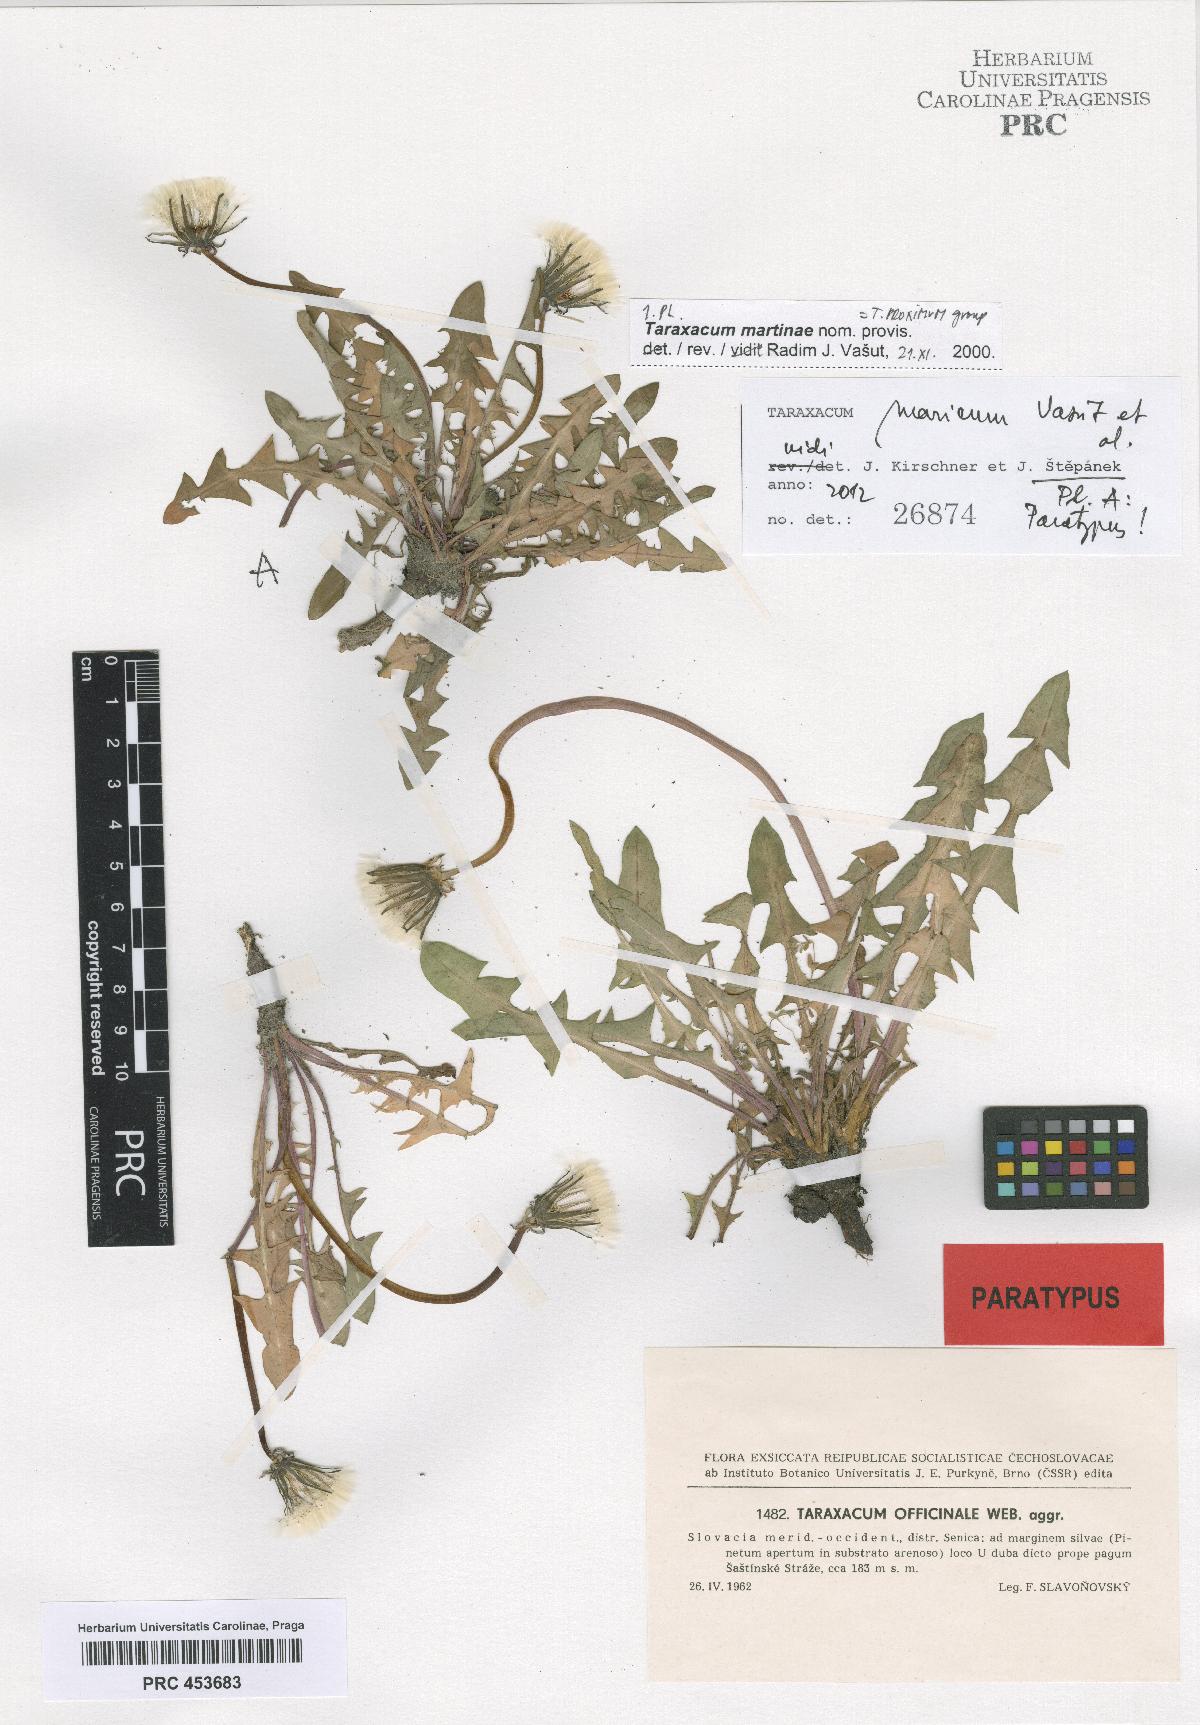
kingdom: Plantae
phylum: Tracheophyta
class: Magnoliopsida
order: Asterales
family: Asteraceae
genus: Taraxacum
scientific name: Taraxacum
